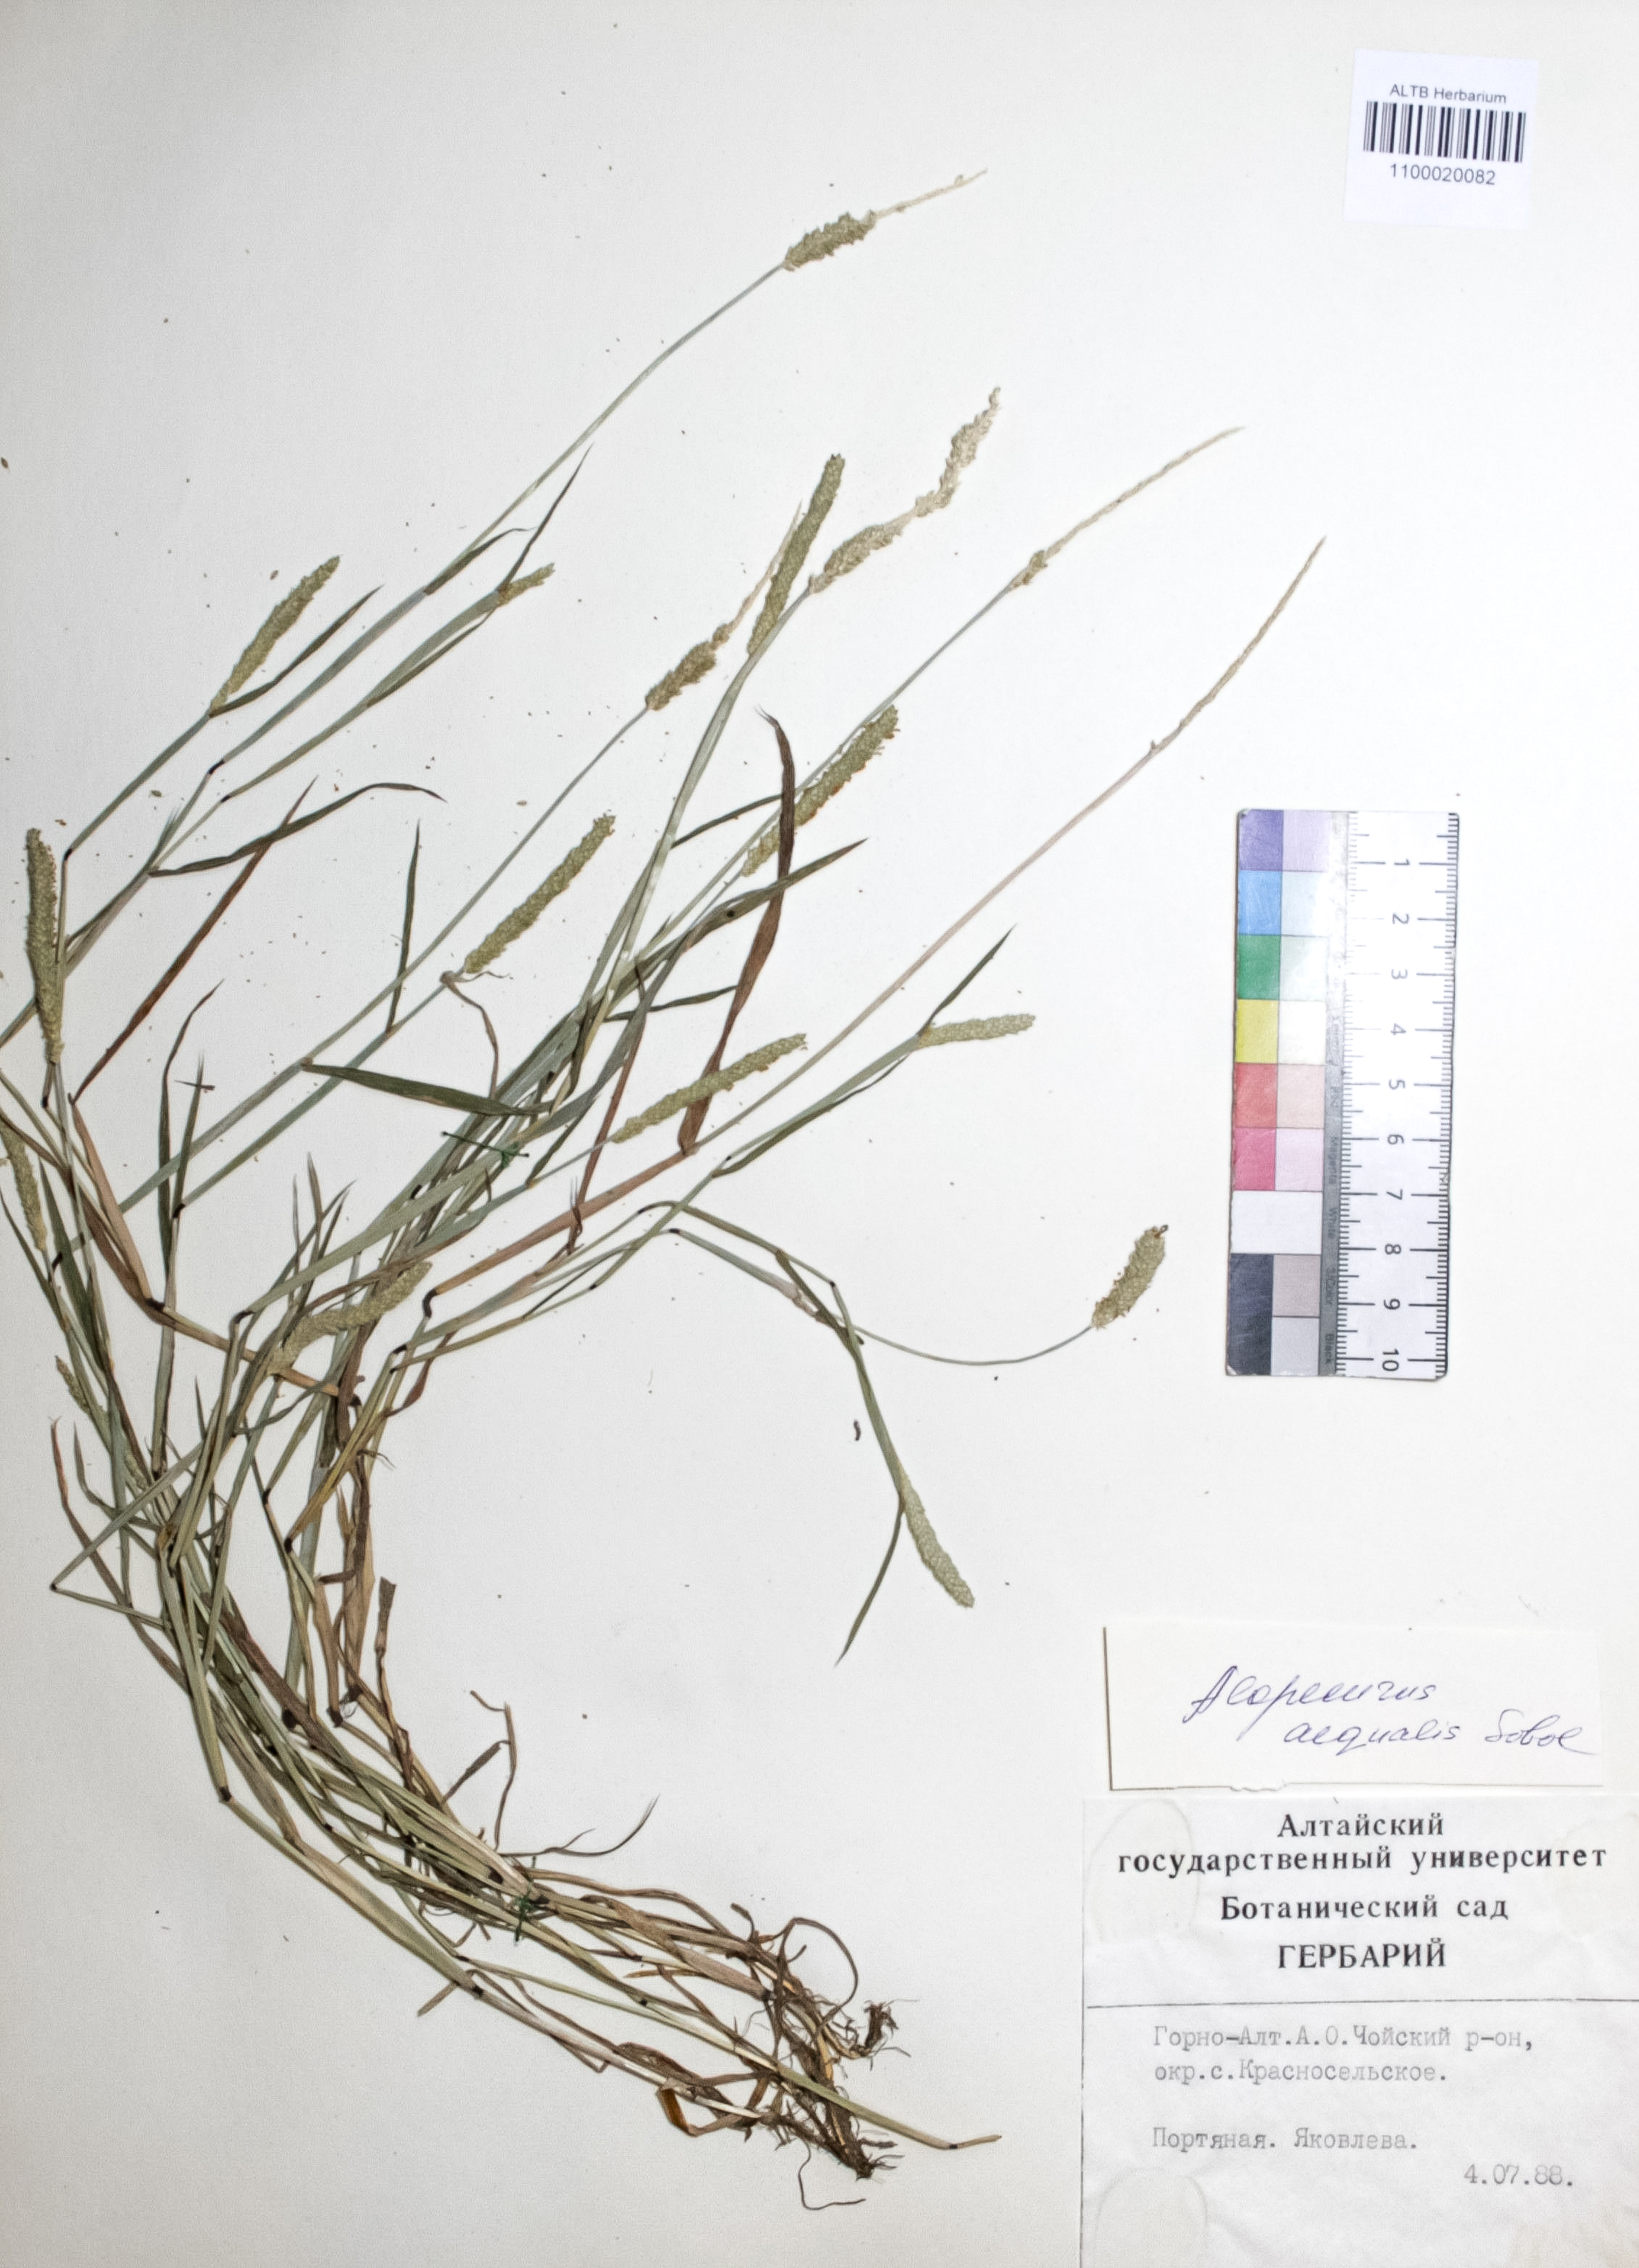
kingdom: Plantae
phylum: Tracheophyta
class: Liliopsida
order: Poales
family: Poaceae
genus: Alopecurus
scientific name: Alopecurus aequalis
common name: Orange foxtail
